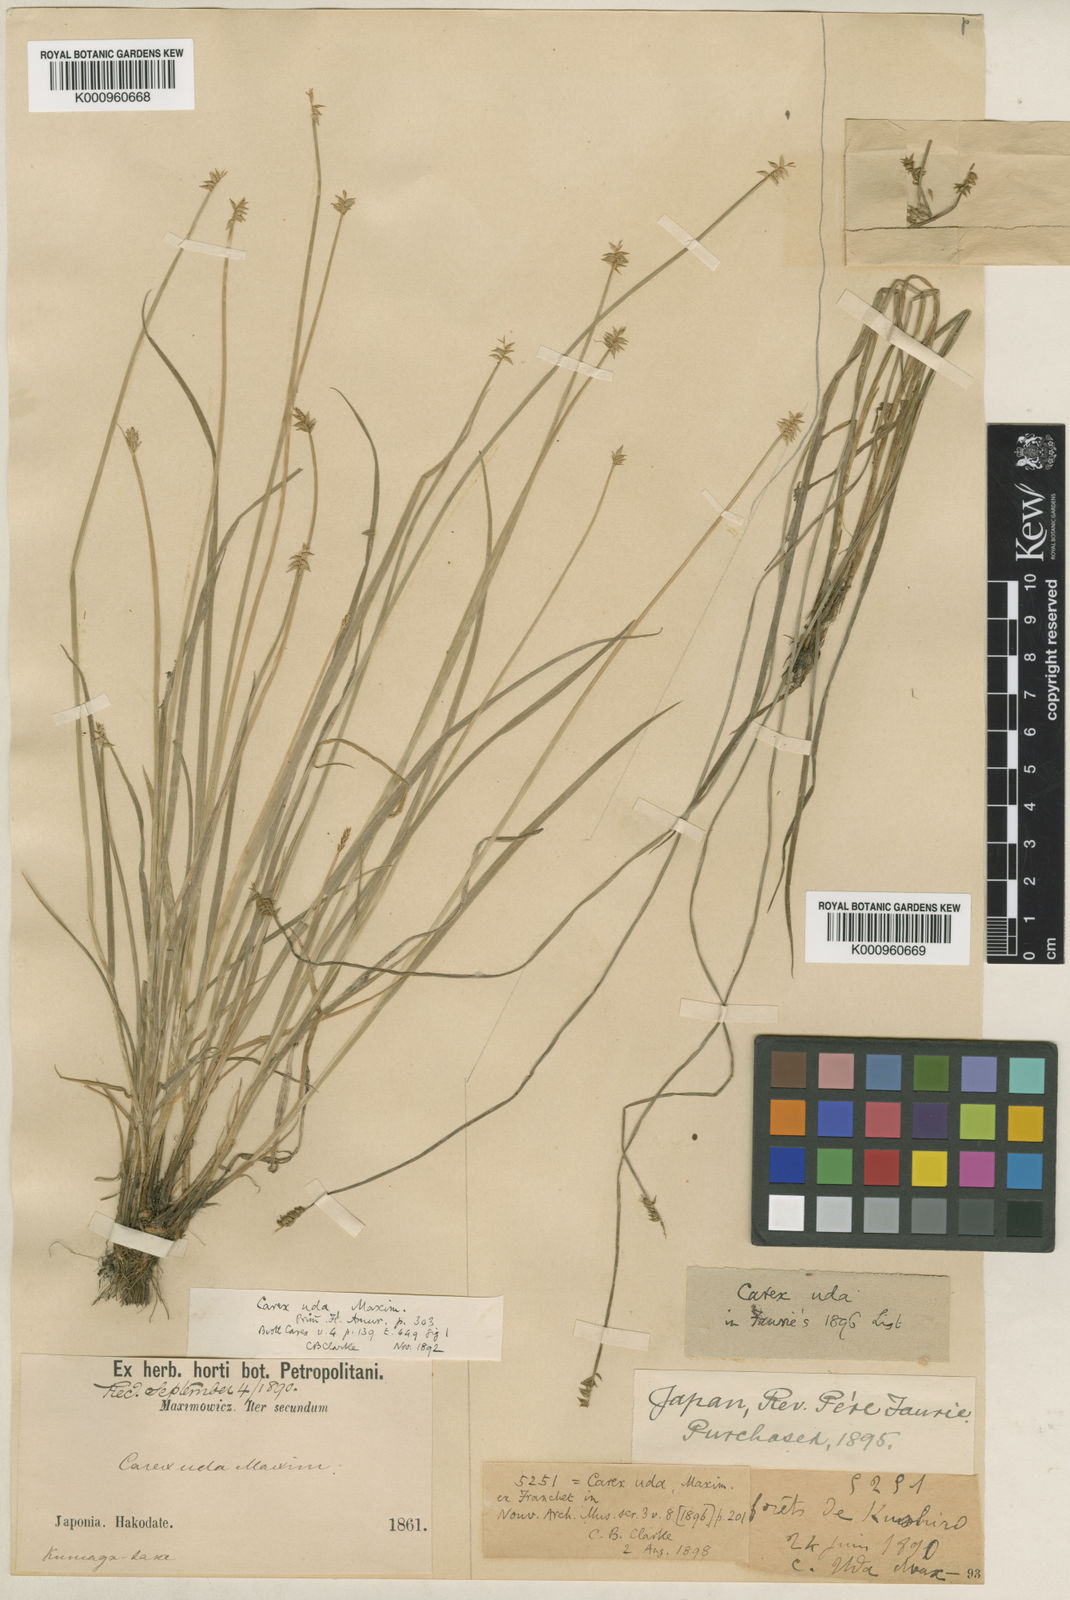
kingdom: Plantae
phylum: Tracheophyta
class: Liliopsida
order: Poales
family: Cyperaceae
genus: Carex
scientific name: Carex uda
